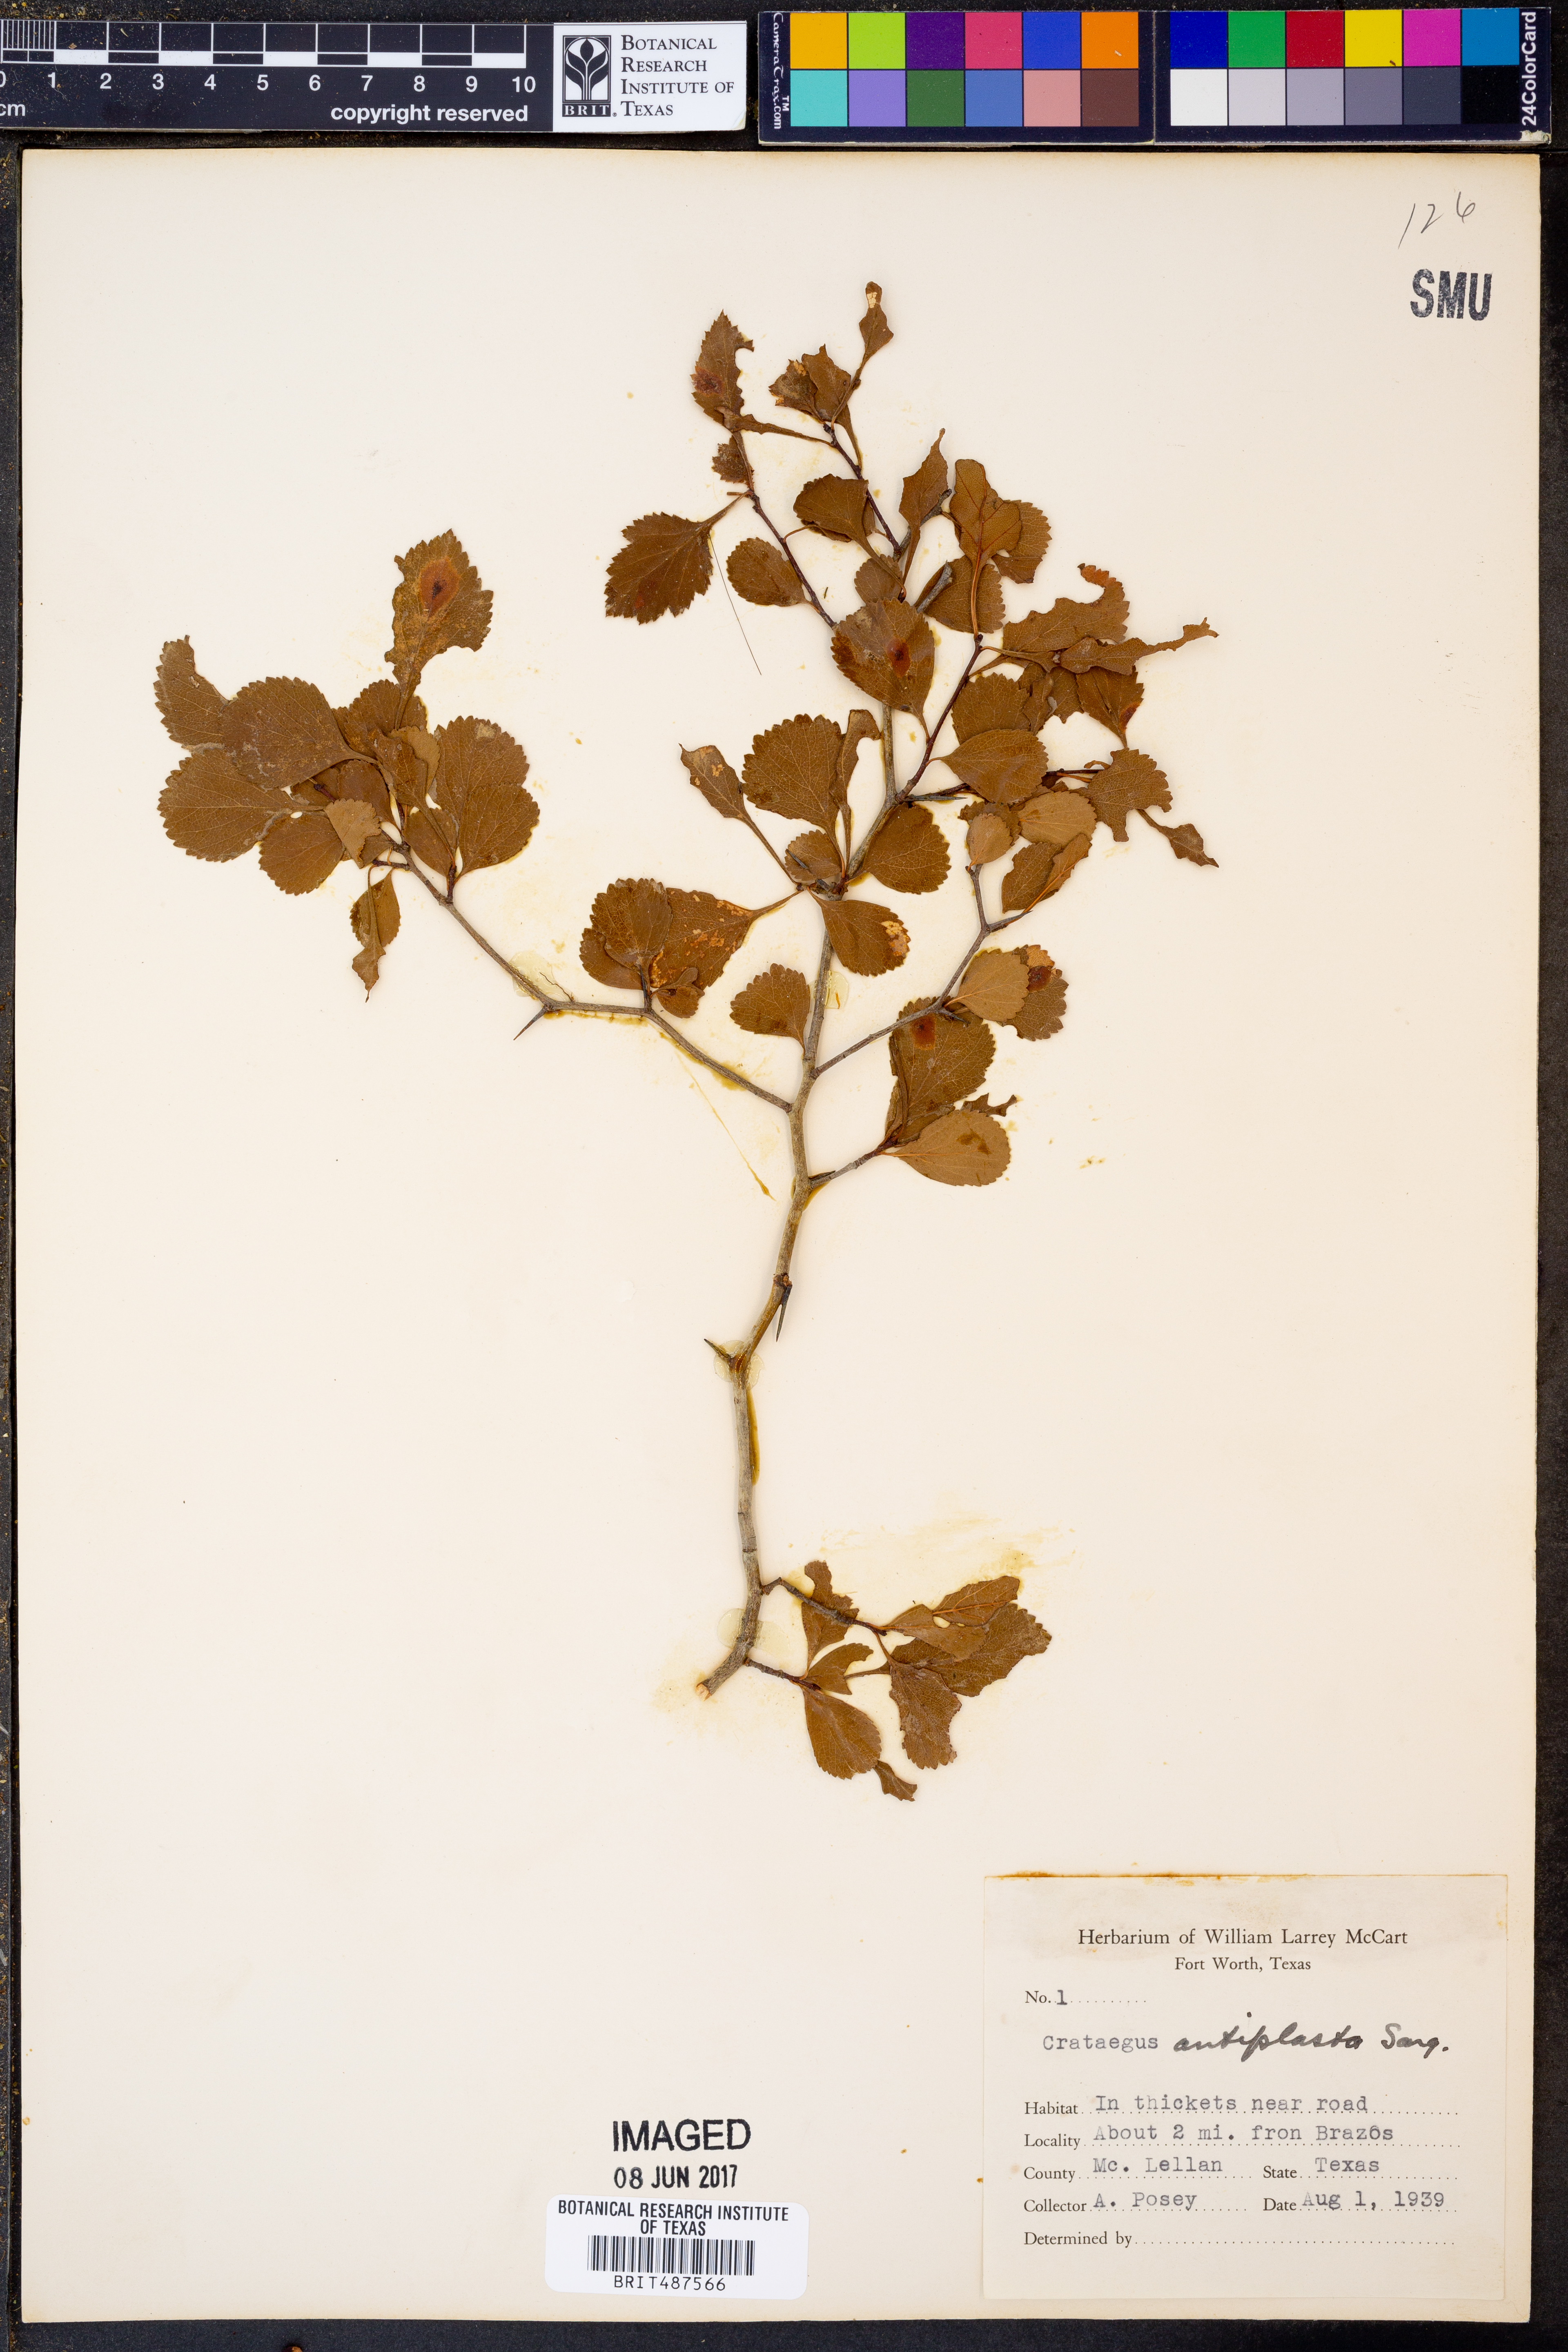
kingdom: Plantae
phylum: Tracheophyta
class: Magnoliopsida
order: Rosales
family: Rosaceae
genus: Crataegus
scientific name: Crataegus anamesa
